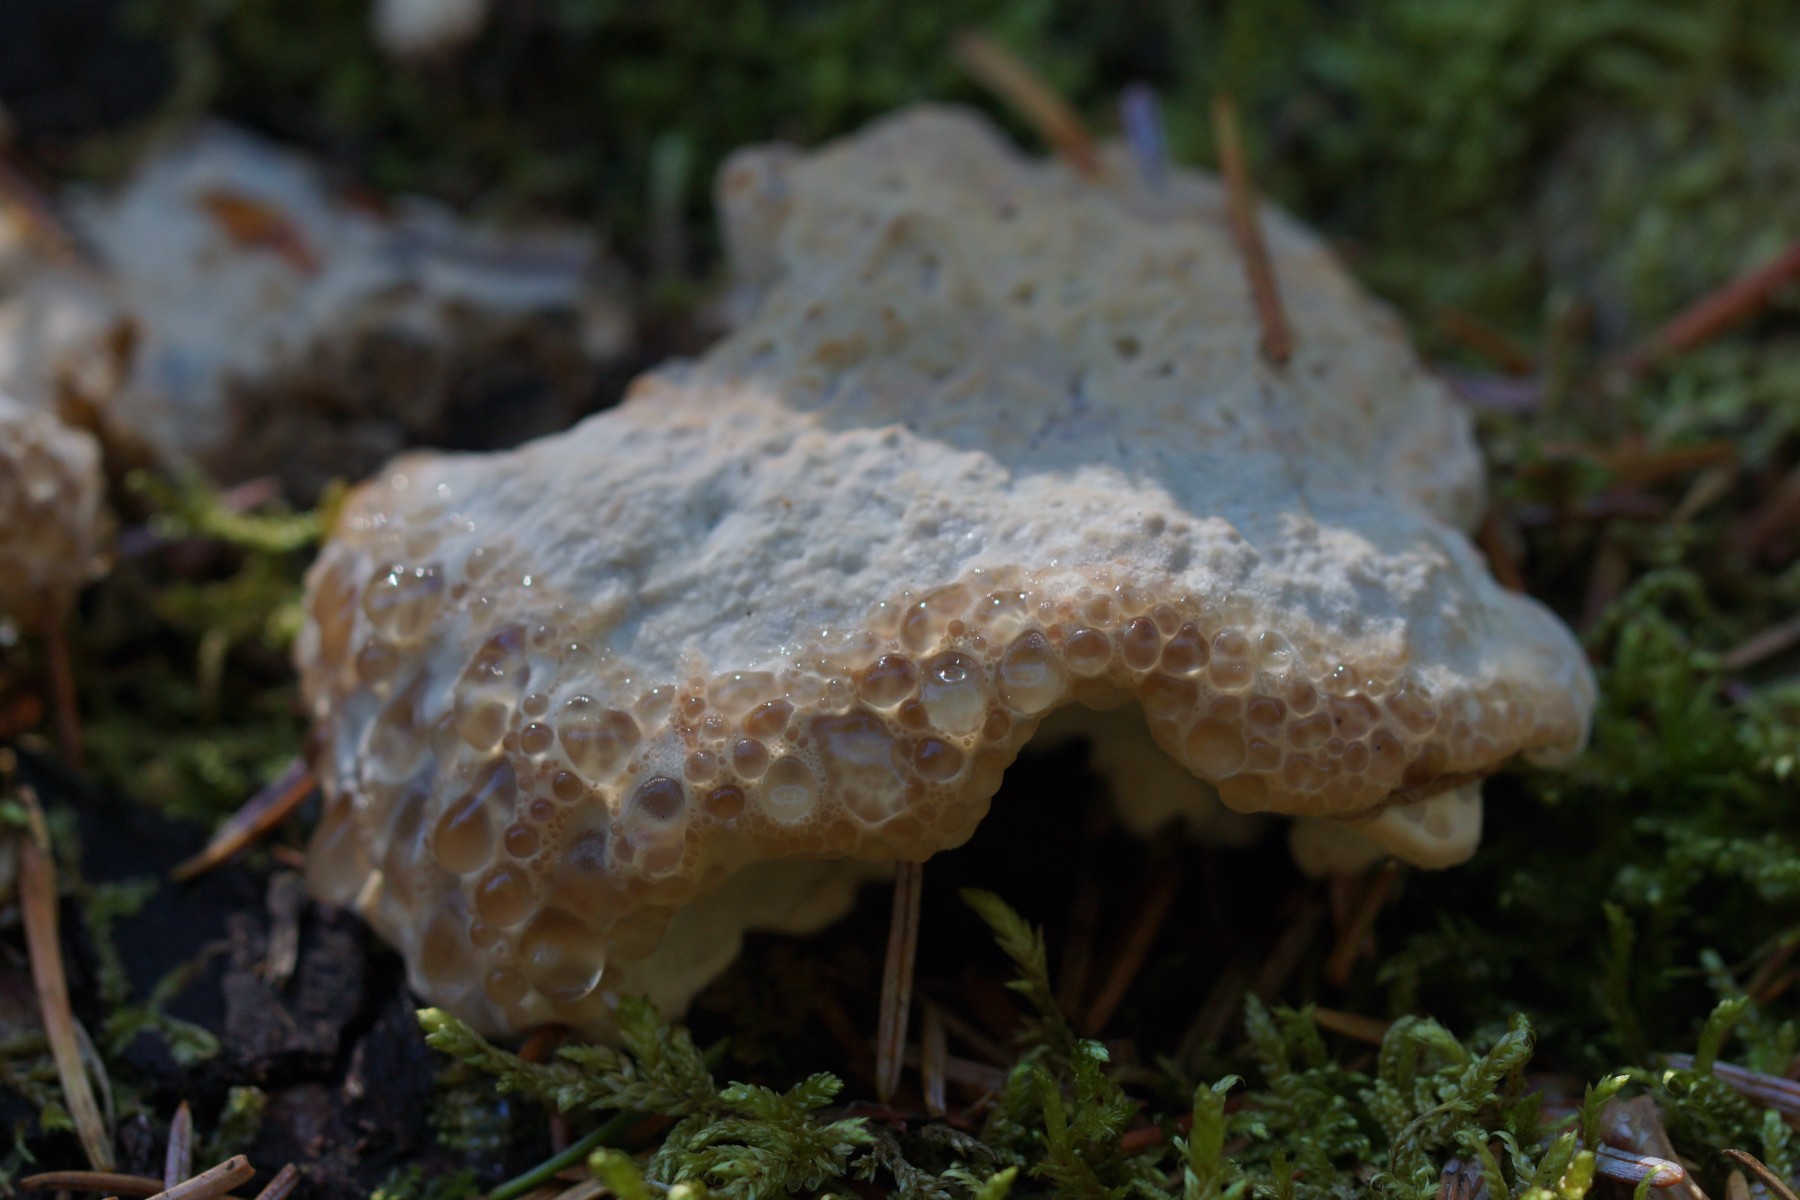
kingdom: Fungi
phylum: Basidiomycota
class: Agaricomycetes
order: Polyporales
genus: Calcipostia
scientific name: Calcipostia guttulata
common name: dråbe-kødporesvamp
